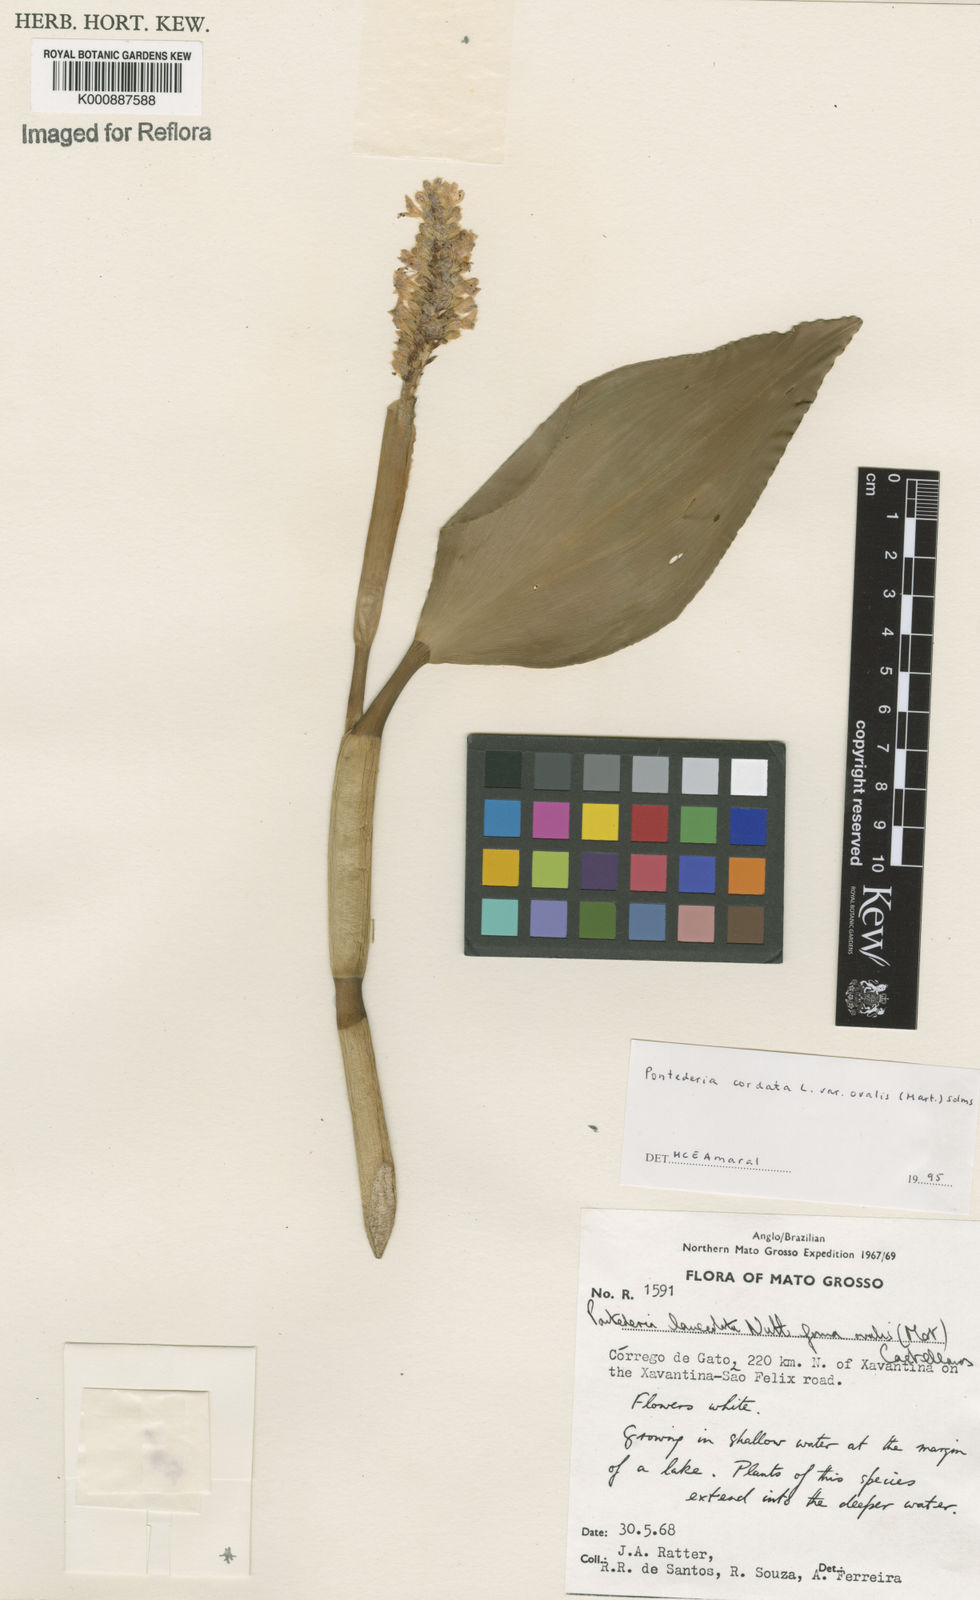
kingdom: Plantae
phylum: Tracheophyta
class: Liliopsida
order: Commelinales
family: Pontederiaceae
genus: Pontederia
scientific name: Pontederia cordata
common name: Pickerelweed
